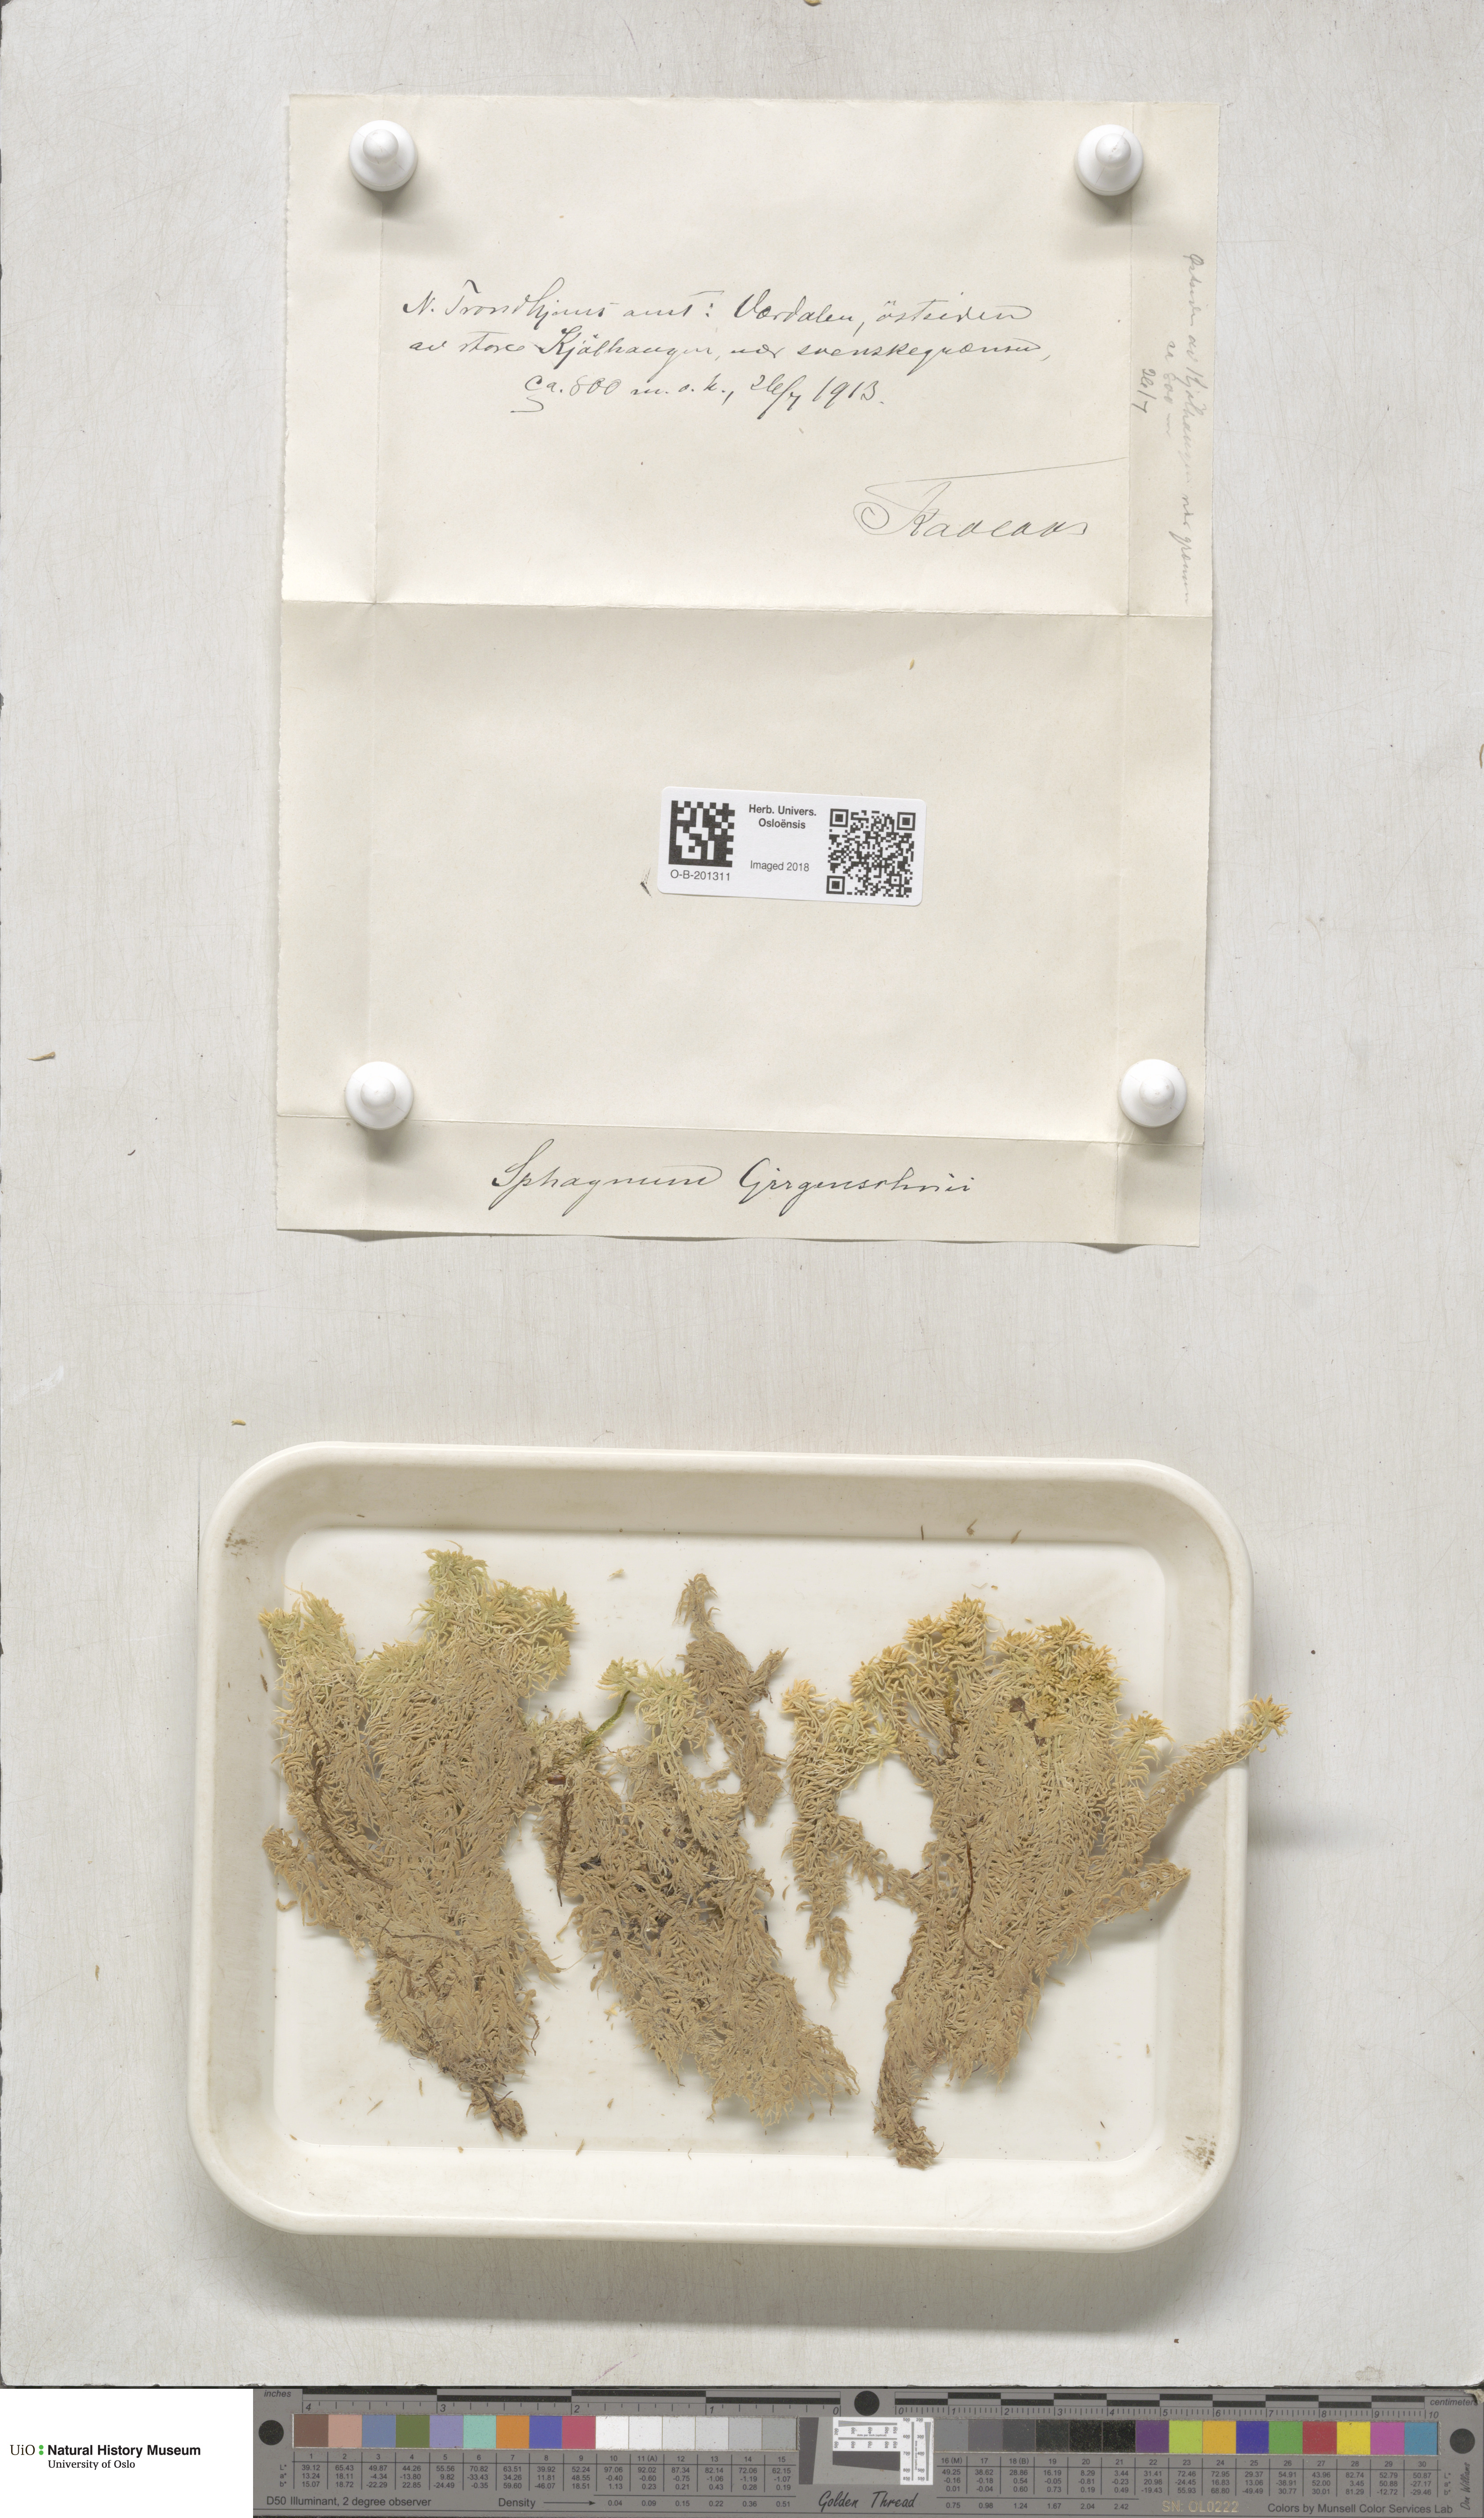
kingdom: Plantae
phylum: Bryophyta
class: Sphagnopsida
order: Sphagnales
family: Sphagnaceae
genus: Sphagnum
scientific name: Sphagnum girgensohnii
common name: Girgensohn's peat moss
